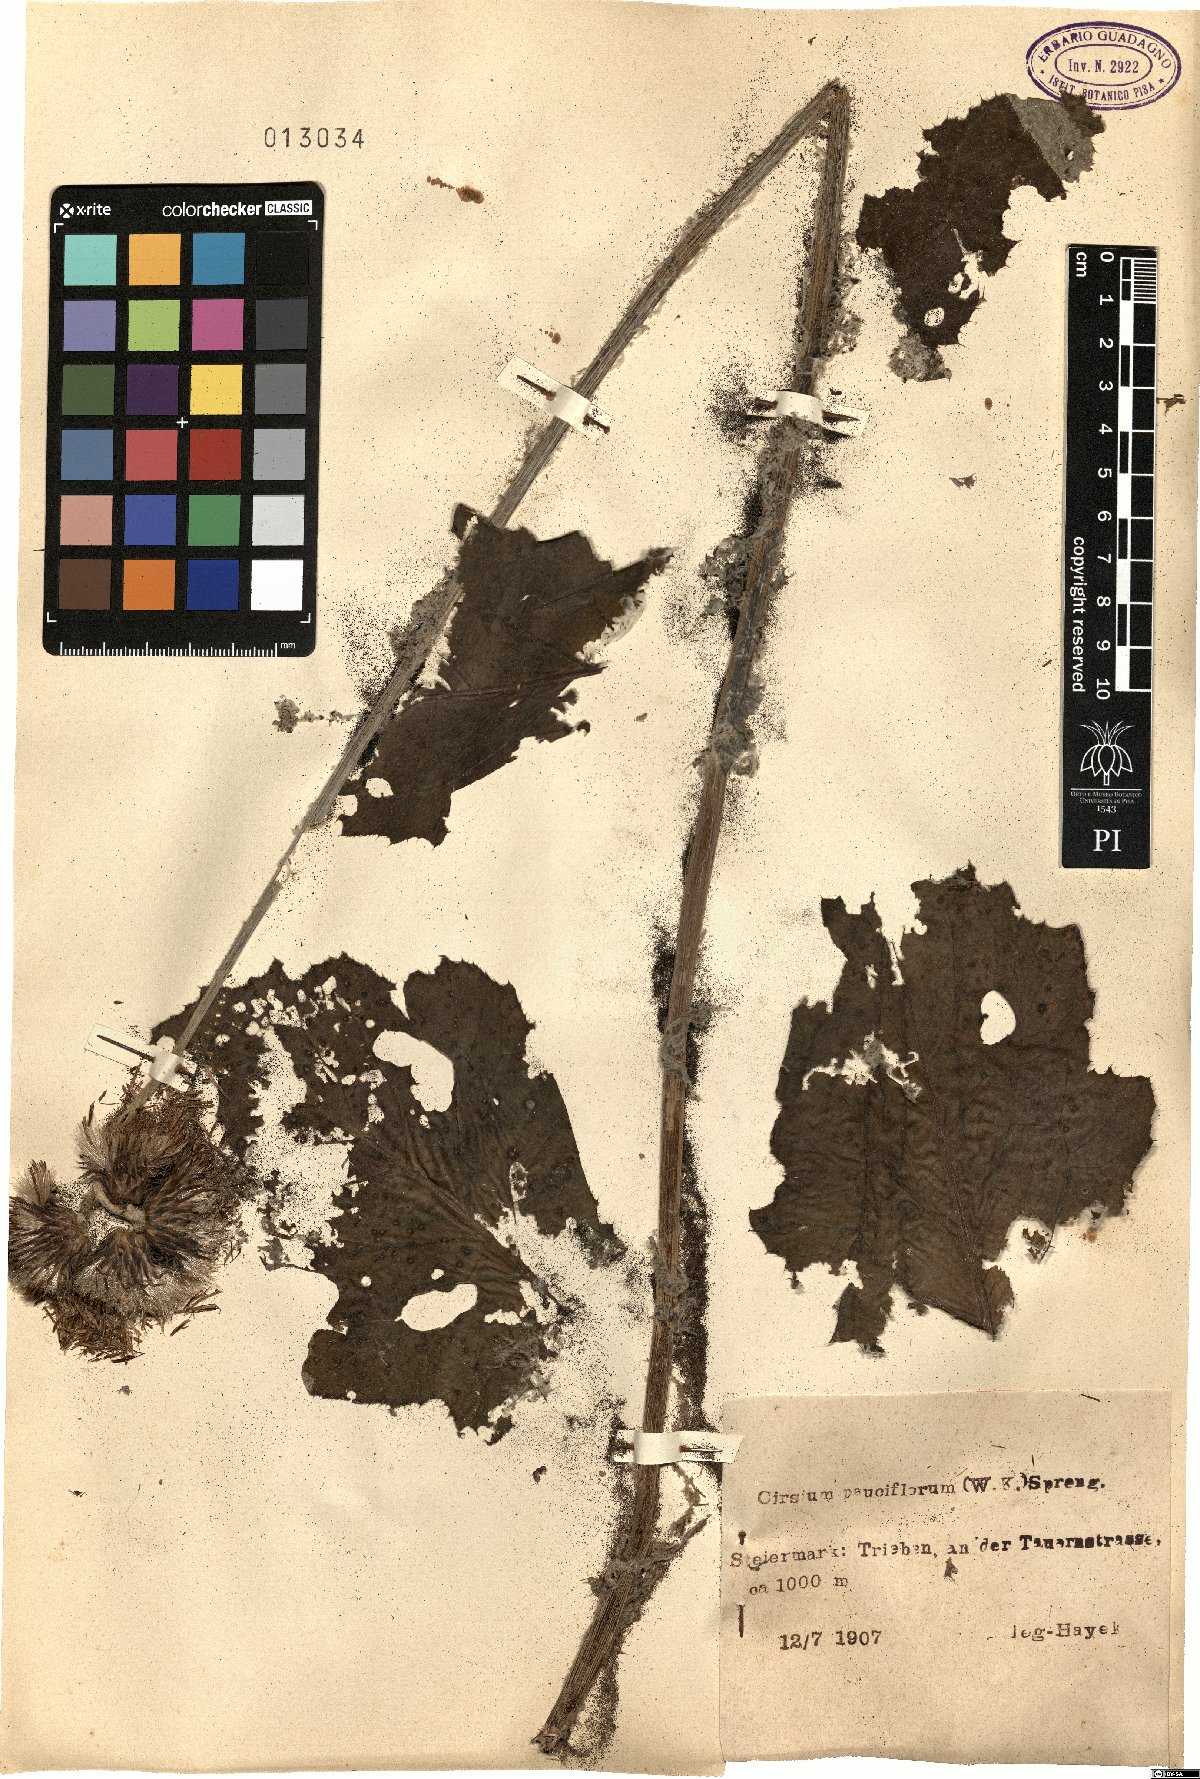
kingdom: Plantae
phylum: Tracheophyta
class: Magnoliopsida
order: Asterales
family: Asteraceae
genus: Cirsium
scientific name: Cirsium waldsteinii
